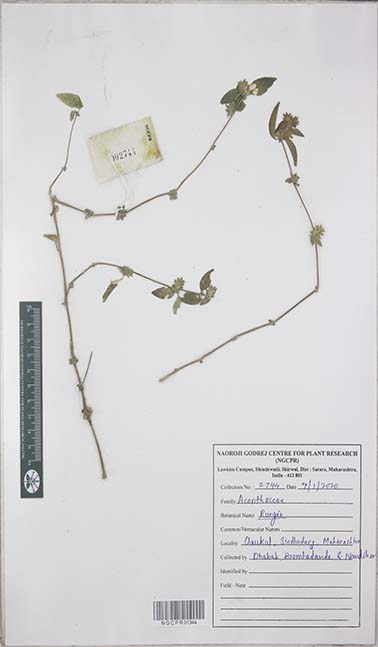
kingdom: Plantae
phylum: Tracheophyta
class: Magnoliopsida
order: Lamiales
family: Acanthaceae
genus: Rungia
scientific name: Rungia
